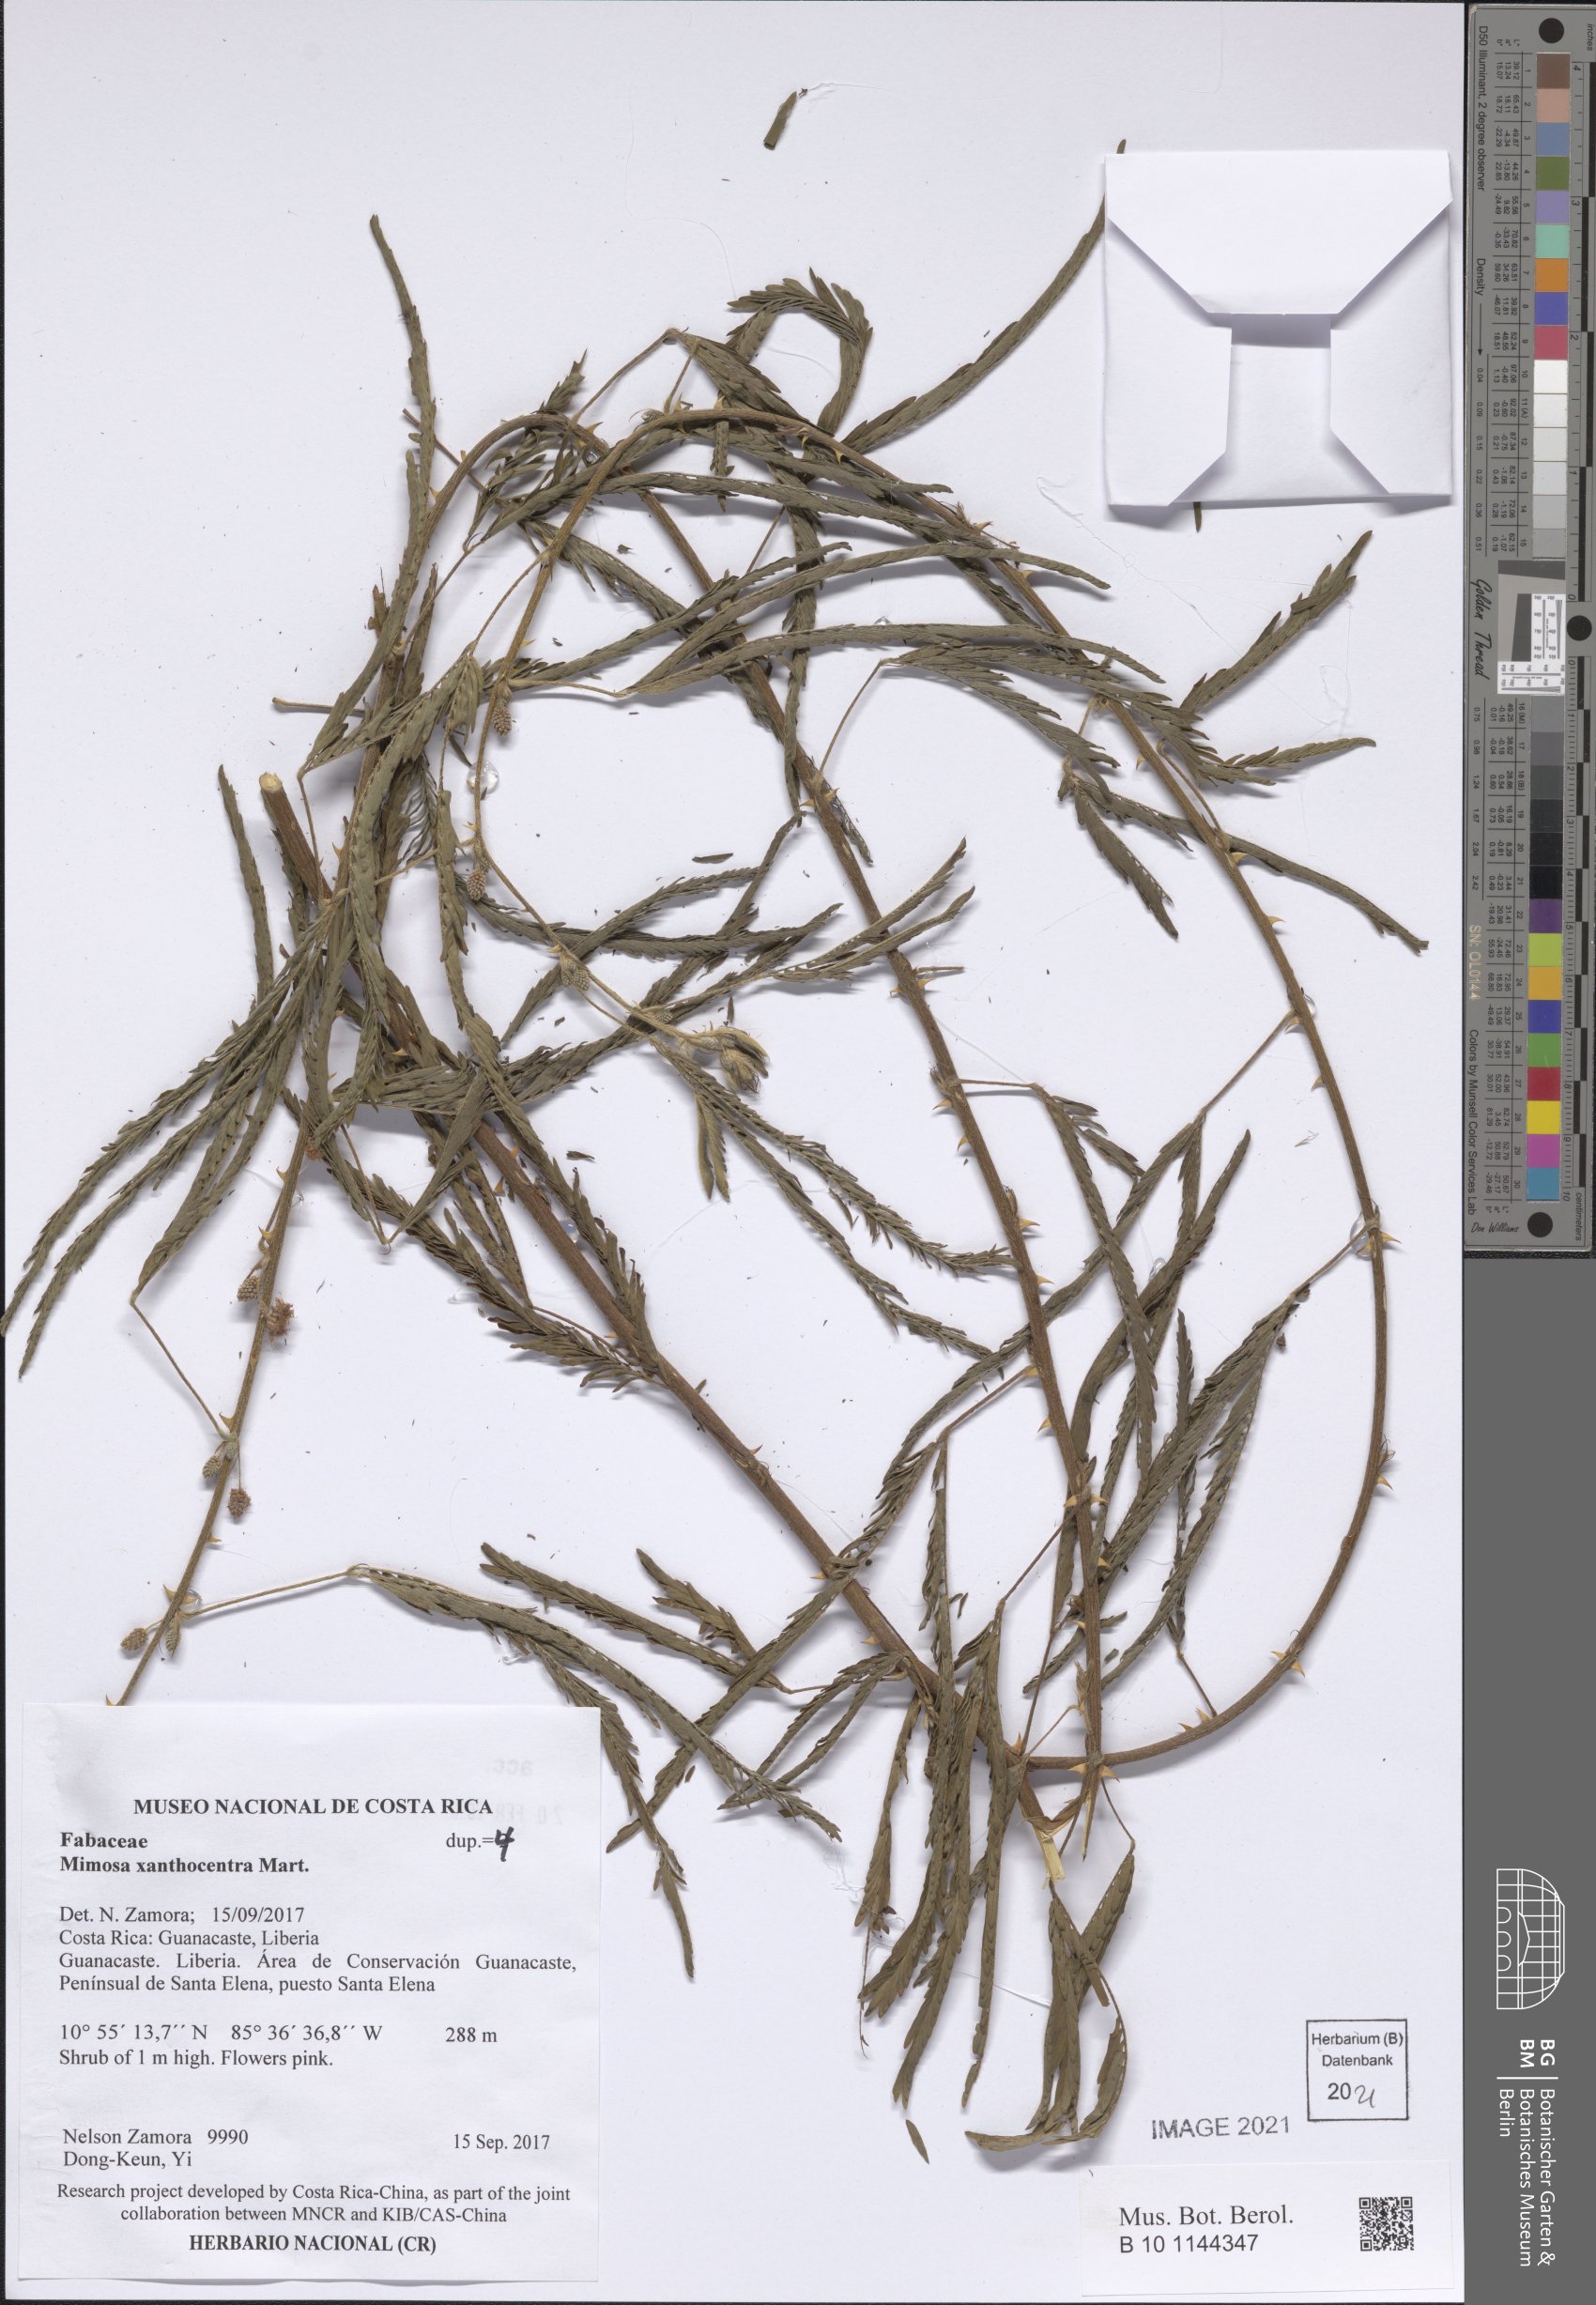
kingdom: Plantae
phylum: Tracheophyta
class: Magnoliopsida
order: Fabales
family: Fabaceae
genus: Mimosa
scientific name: Mimosa xanthocentra
